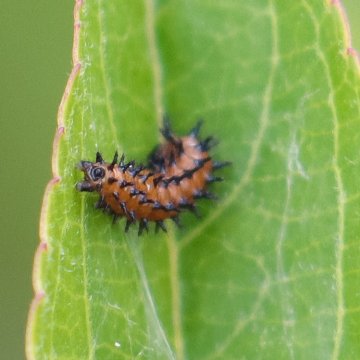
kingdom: Animalia
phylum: Arthropoda
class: Insecta
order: Lepidoptera
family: Nymphalidae
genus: Dione
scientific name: Dione vanillae
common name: Gulf Fritillary
